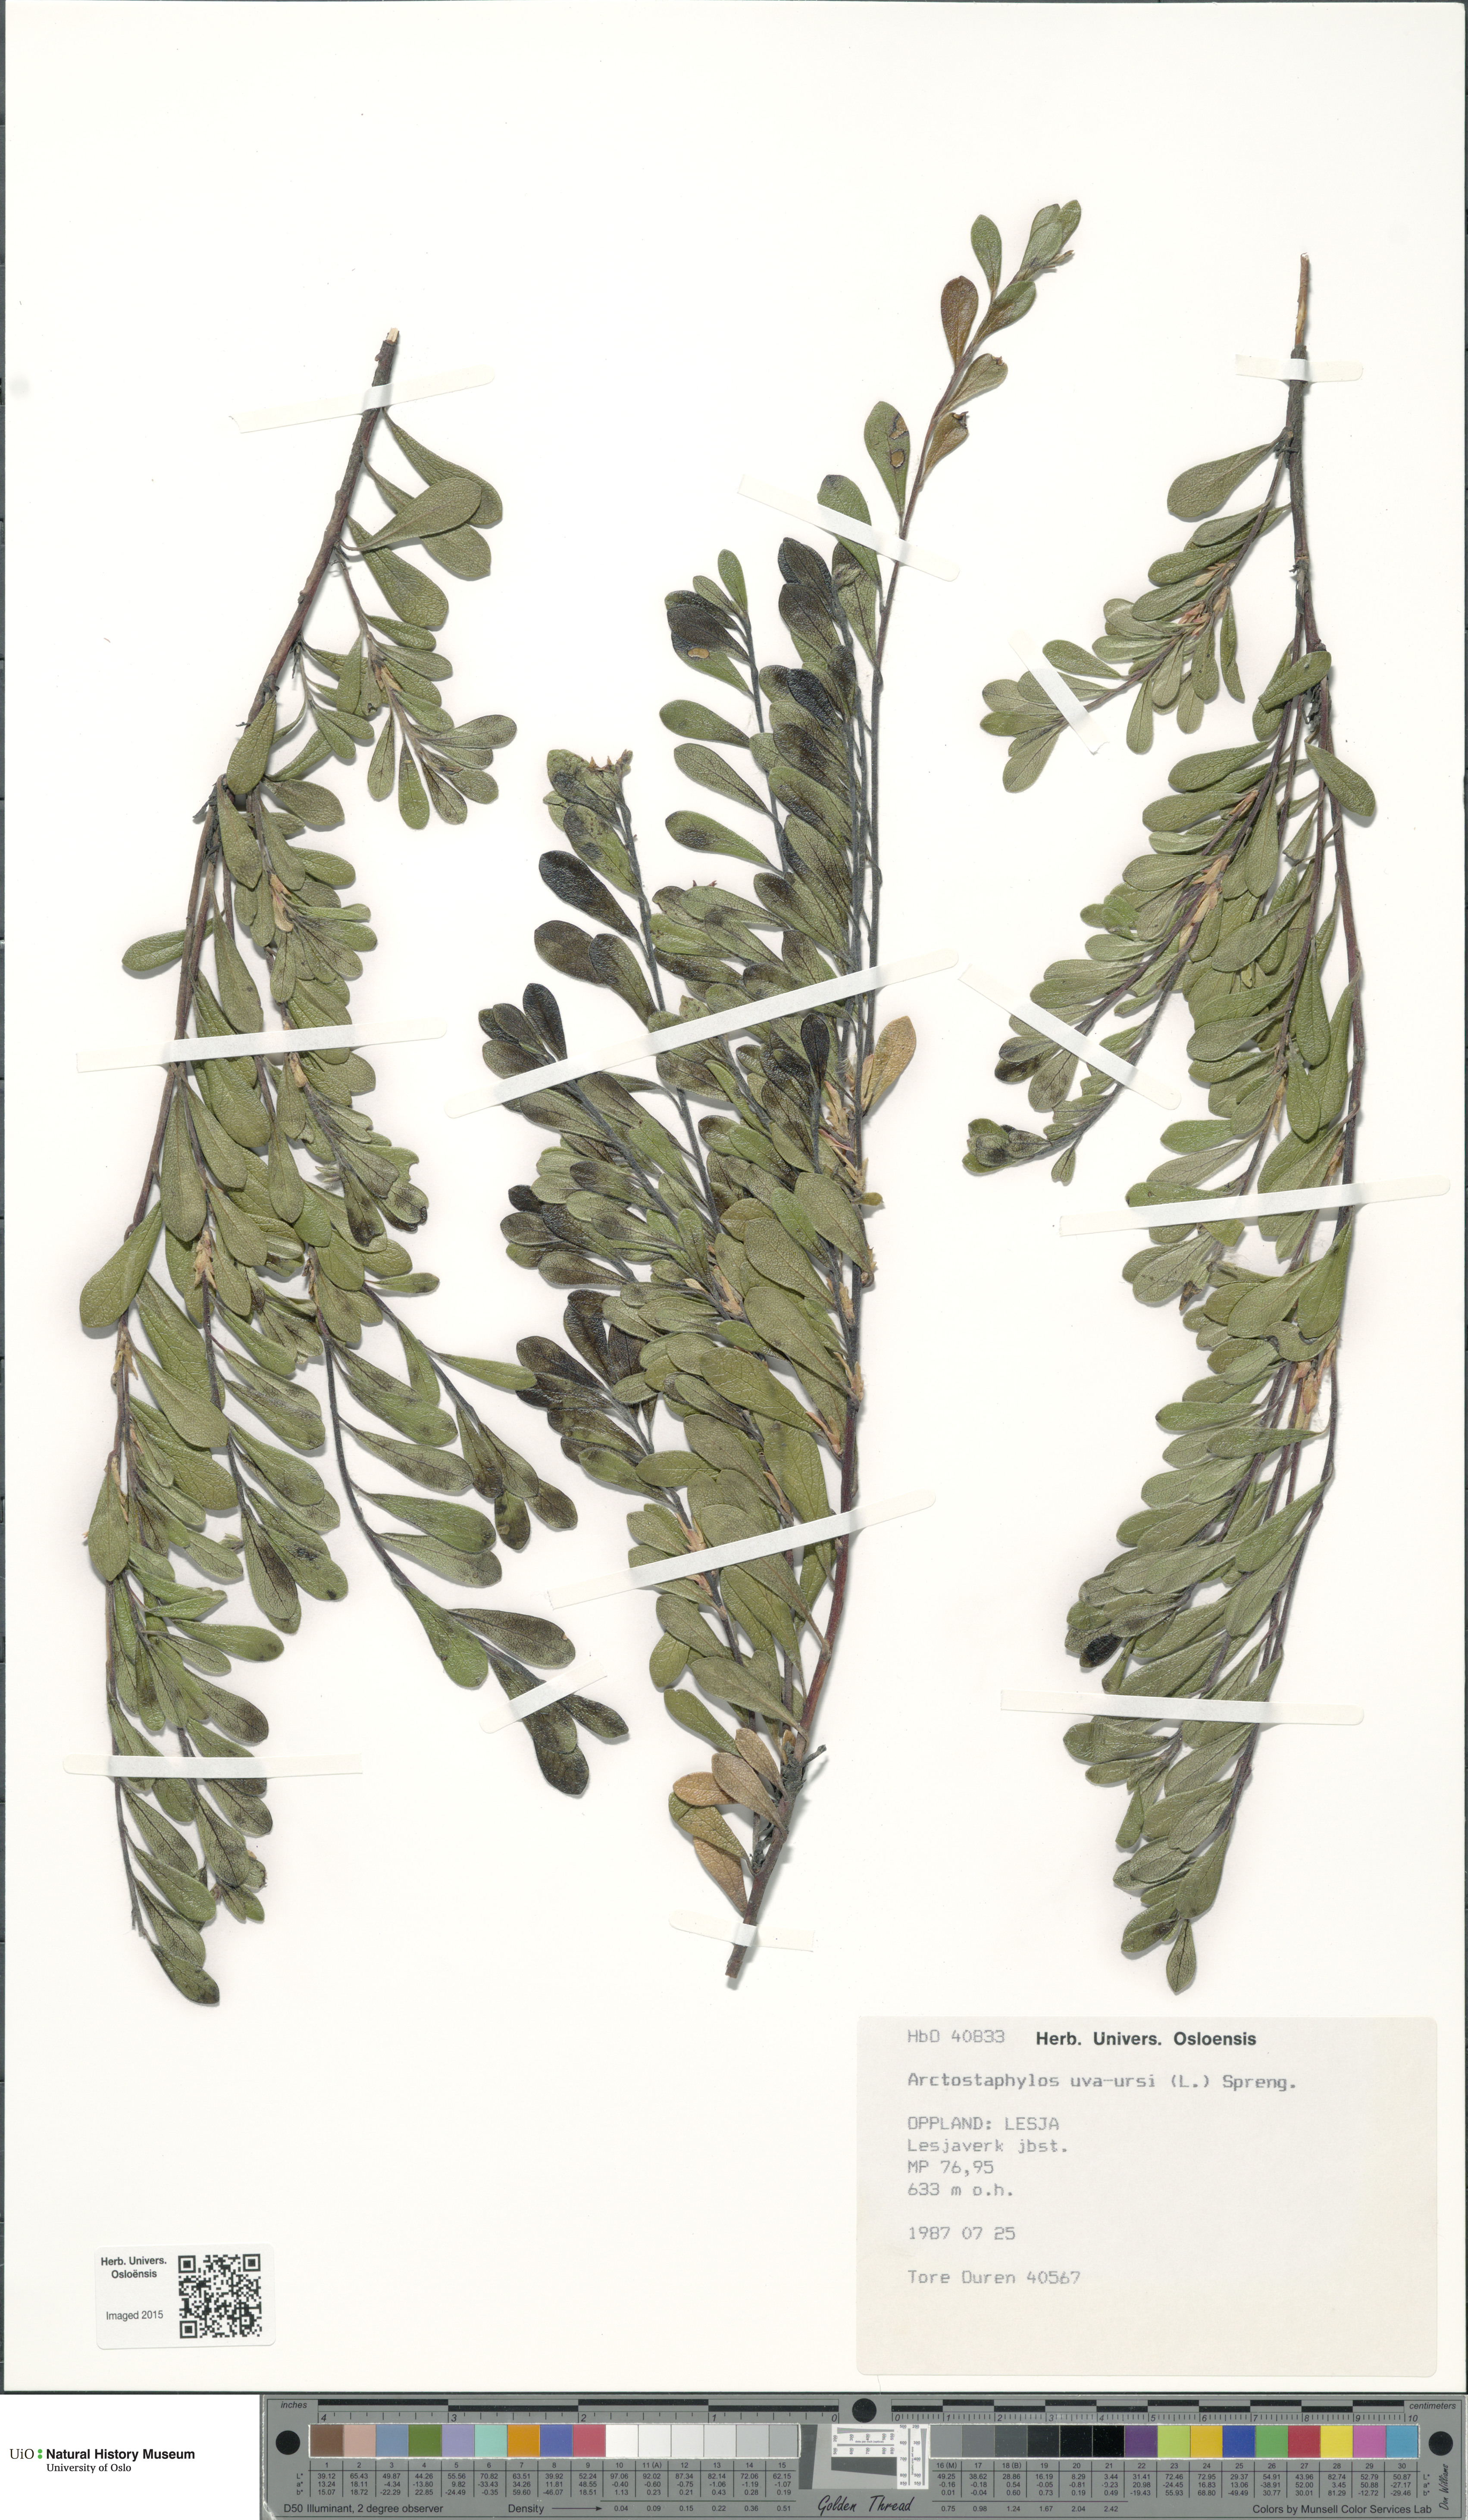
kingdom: Plantae
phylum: Tracheophyta
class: Magnoliopsida
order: Ericales
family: Ericaceae
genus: Arctostaphylos
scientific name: Arctostaphylos uva-ursi
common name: Bearberry
